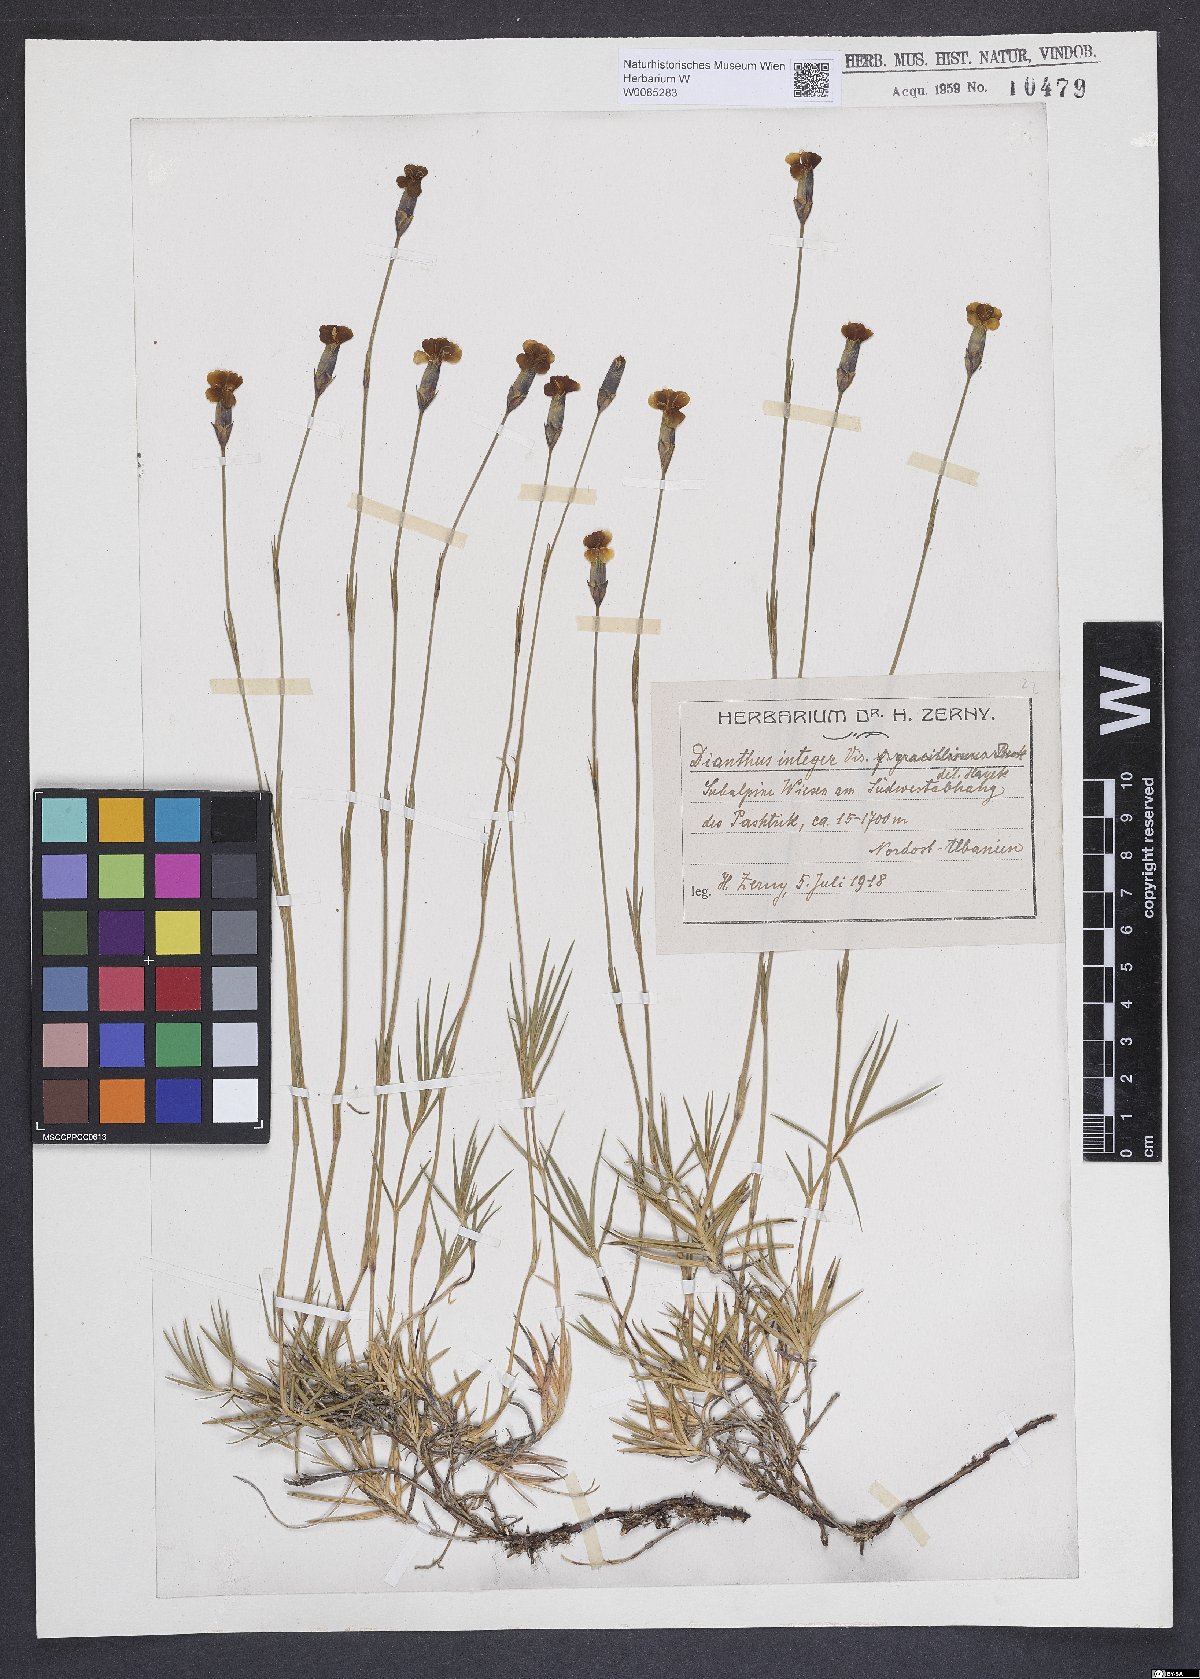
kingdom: Plantae
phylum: Tracheophyta
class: Magnoliopsida
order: Caryophyllales
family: Caryophyllaceae
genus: Dianthus
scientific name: Dianthus petraeus
